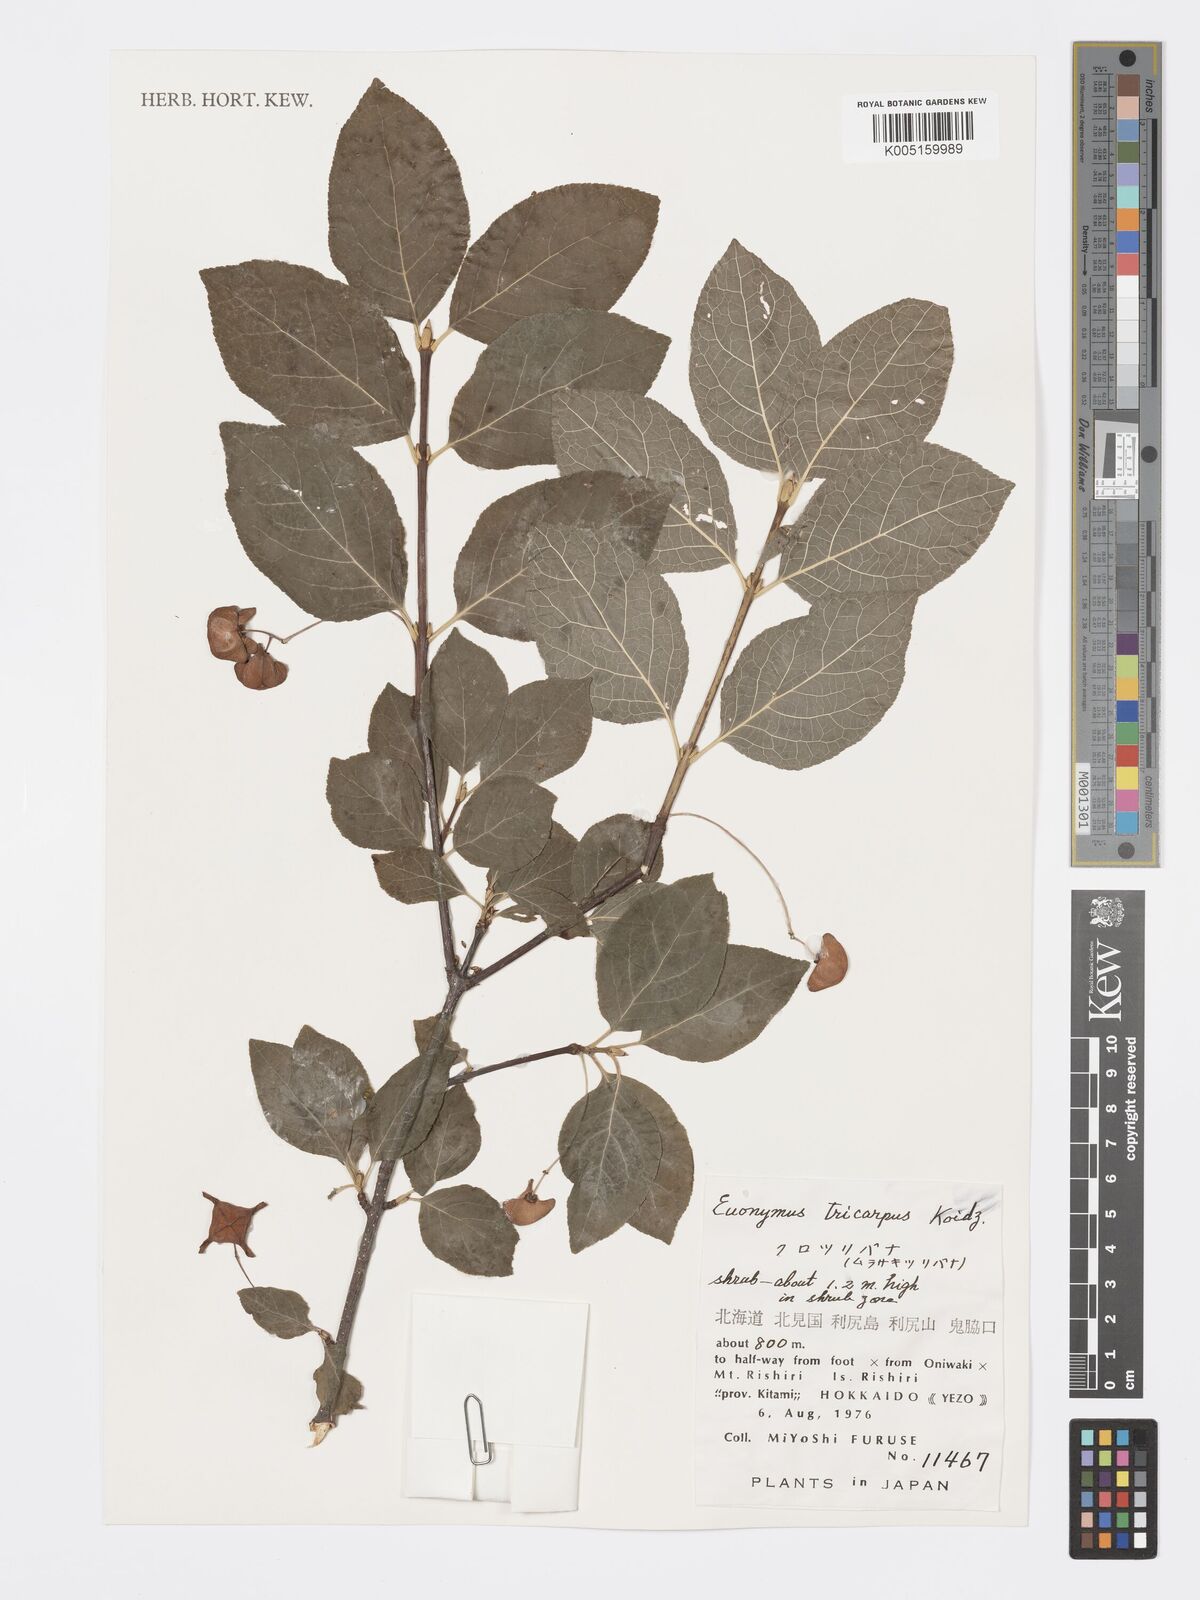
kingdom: Plantae
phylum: Tracheophyta
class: Magnoliopsida
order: Celastrales
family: Celastraceae
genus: Euonymus
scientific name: Euonymus sachalinensis
